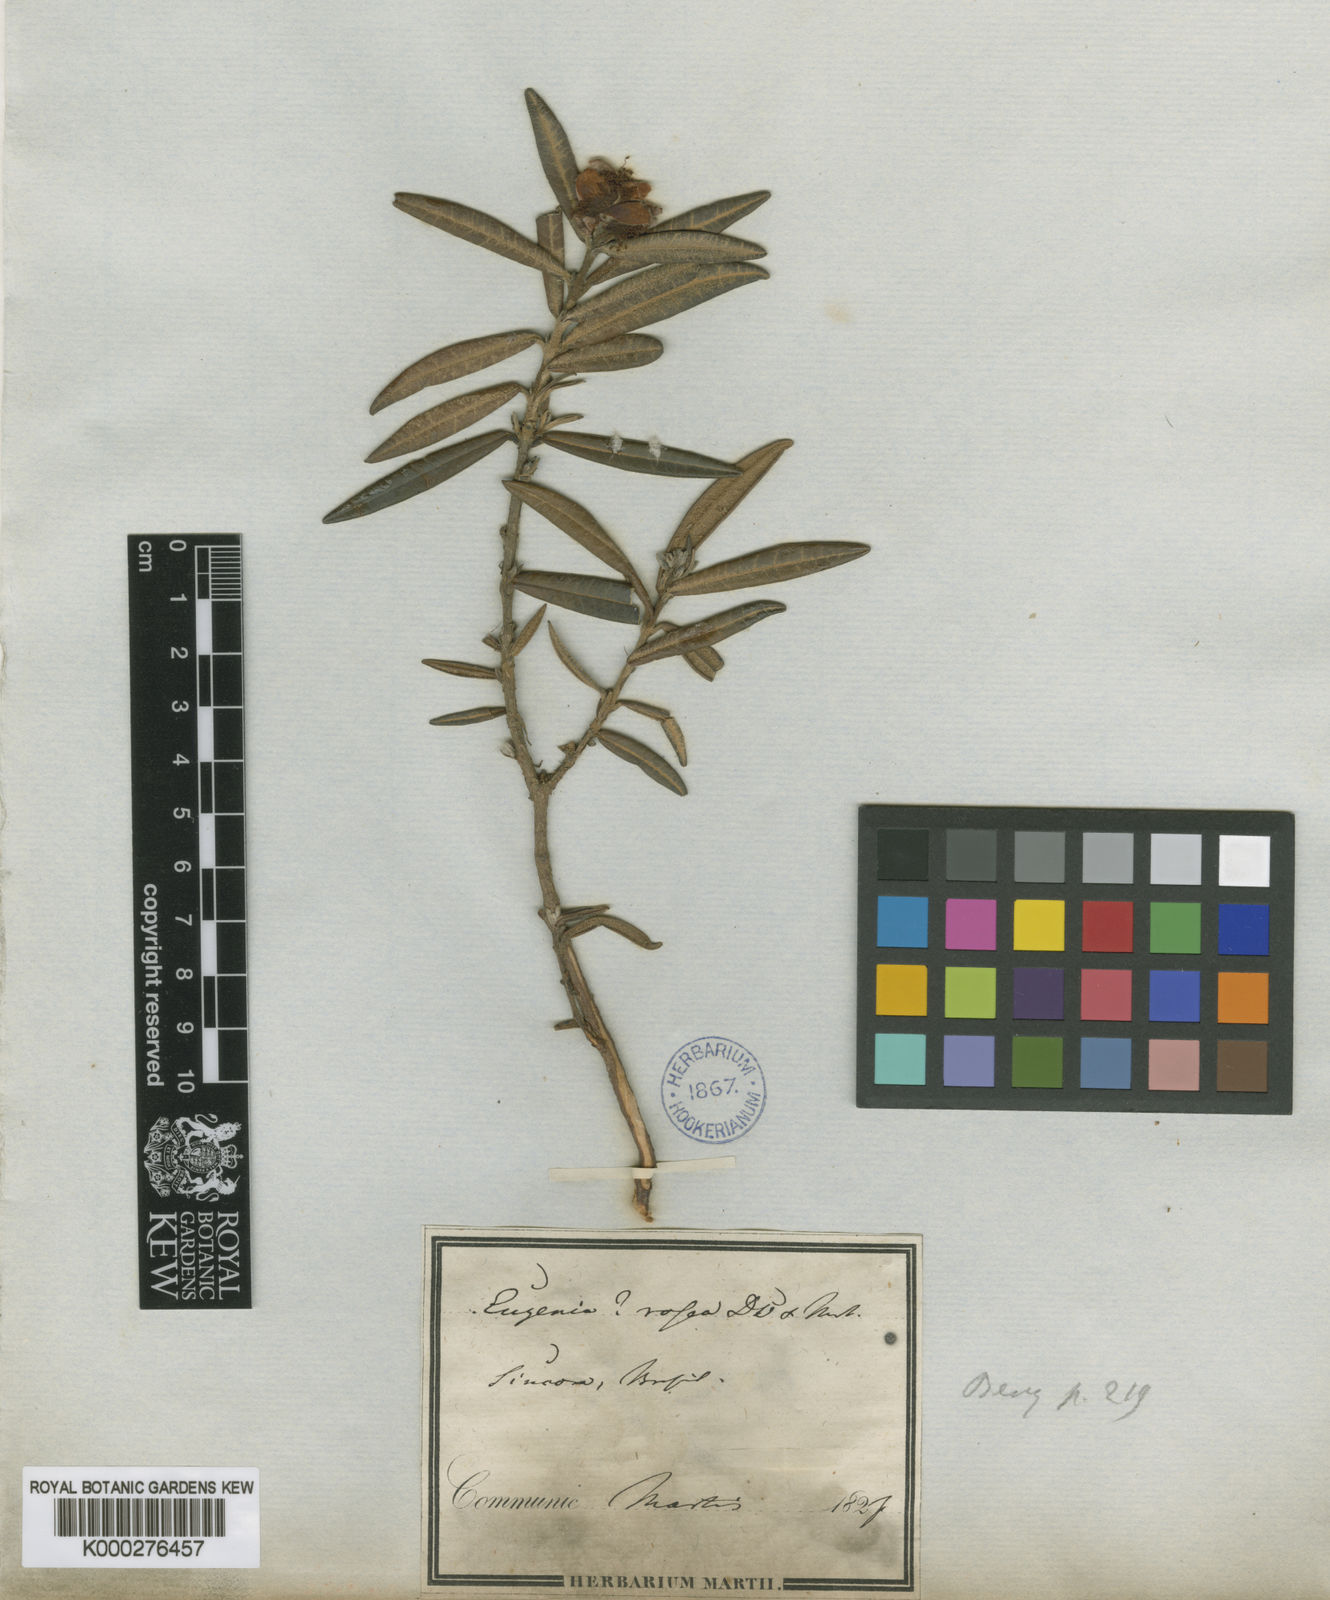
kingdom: Plantae
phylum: Tracheophyta
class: Magnoliopsida
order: Myrtales
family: Myrtaceae
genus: Eugenia
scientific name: Eugenia rosea
